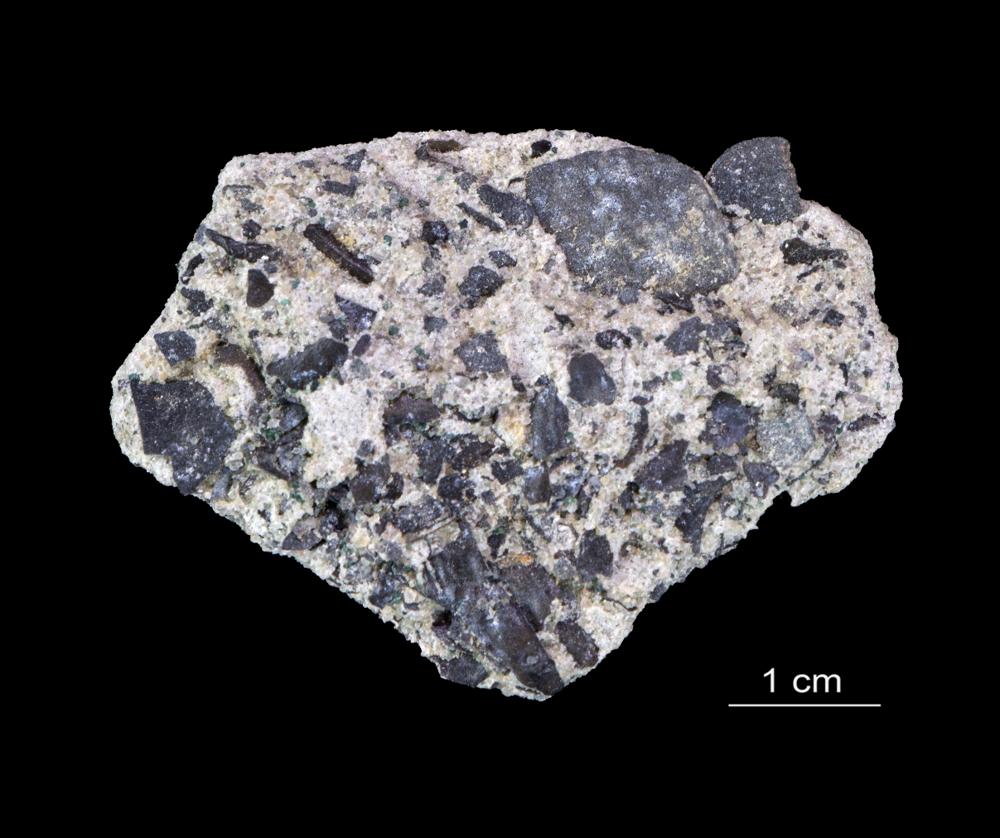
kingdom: Animalia
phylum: Arthropoda
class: Trilobita
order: Redlichiida
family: Holmiidae
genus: Schmidtiellus
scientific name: Schmidtiellus Olenellus mickwitzi
